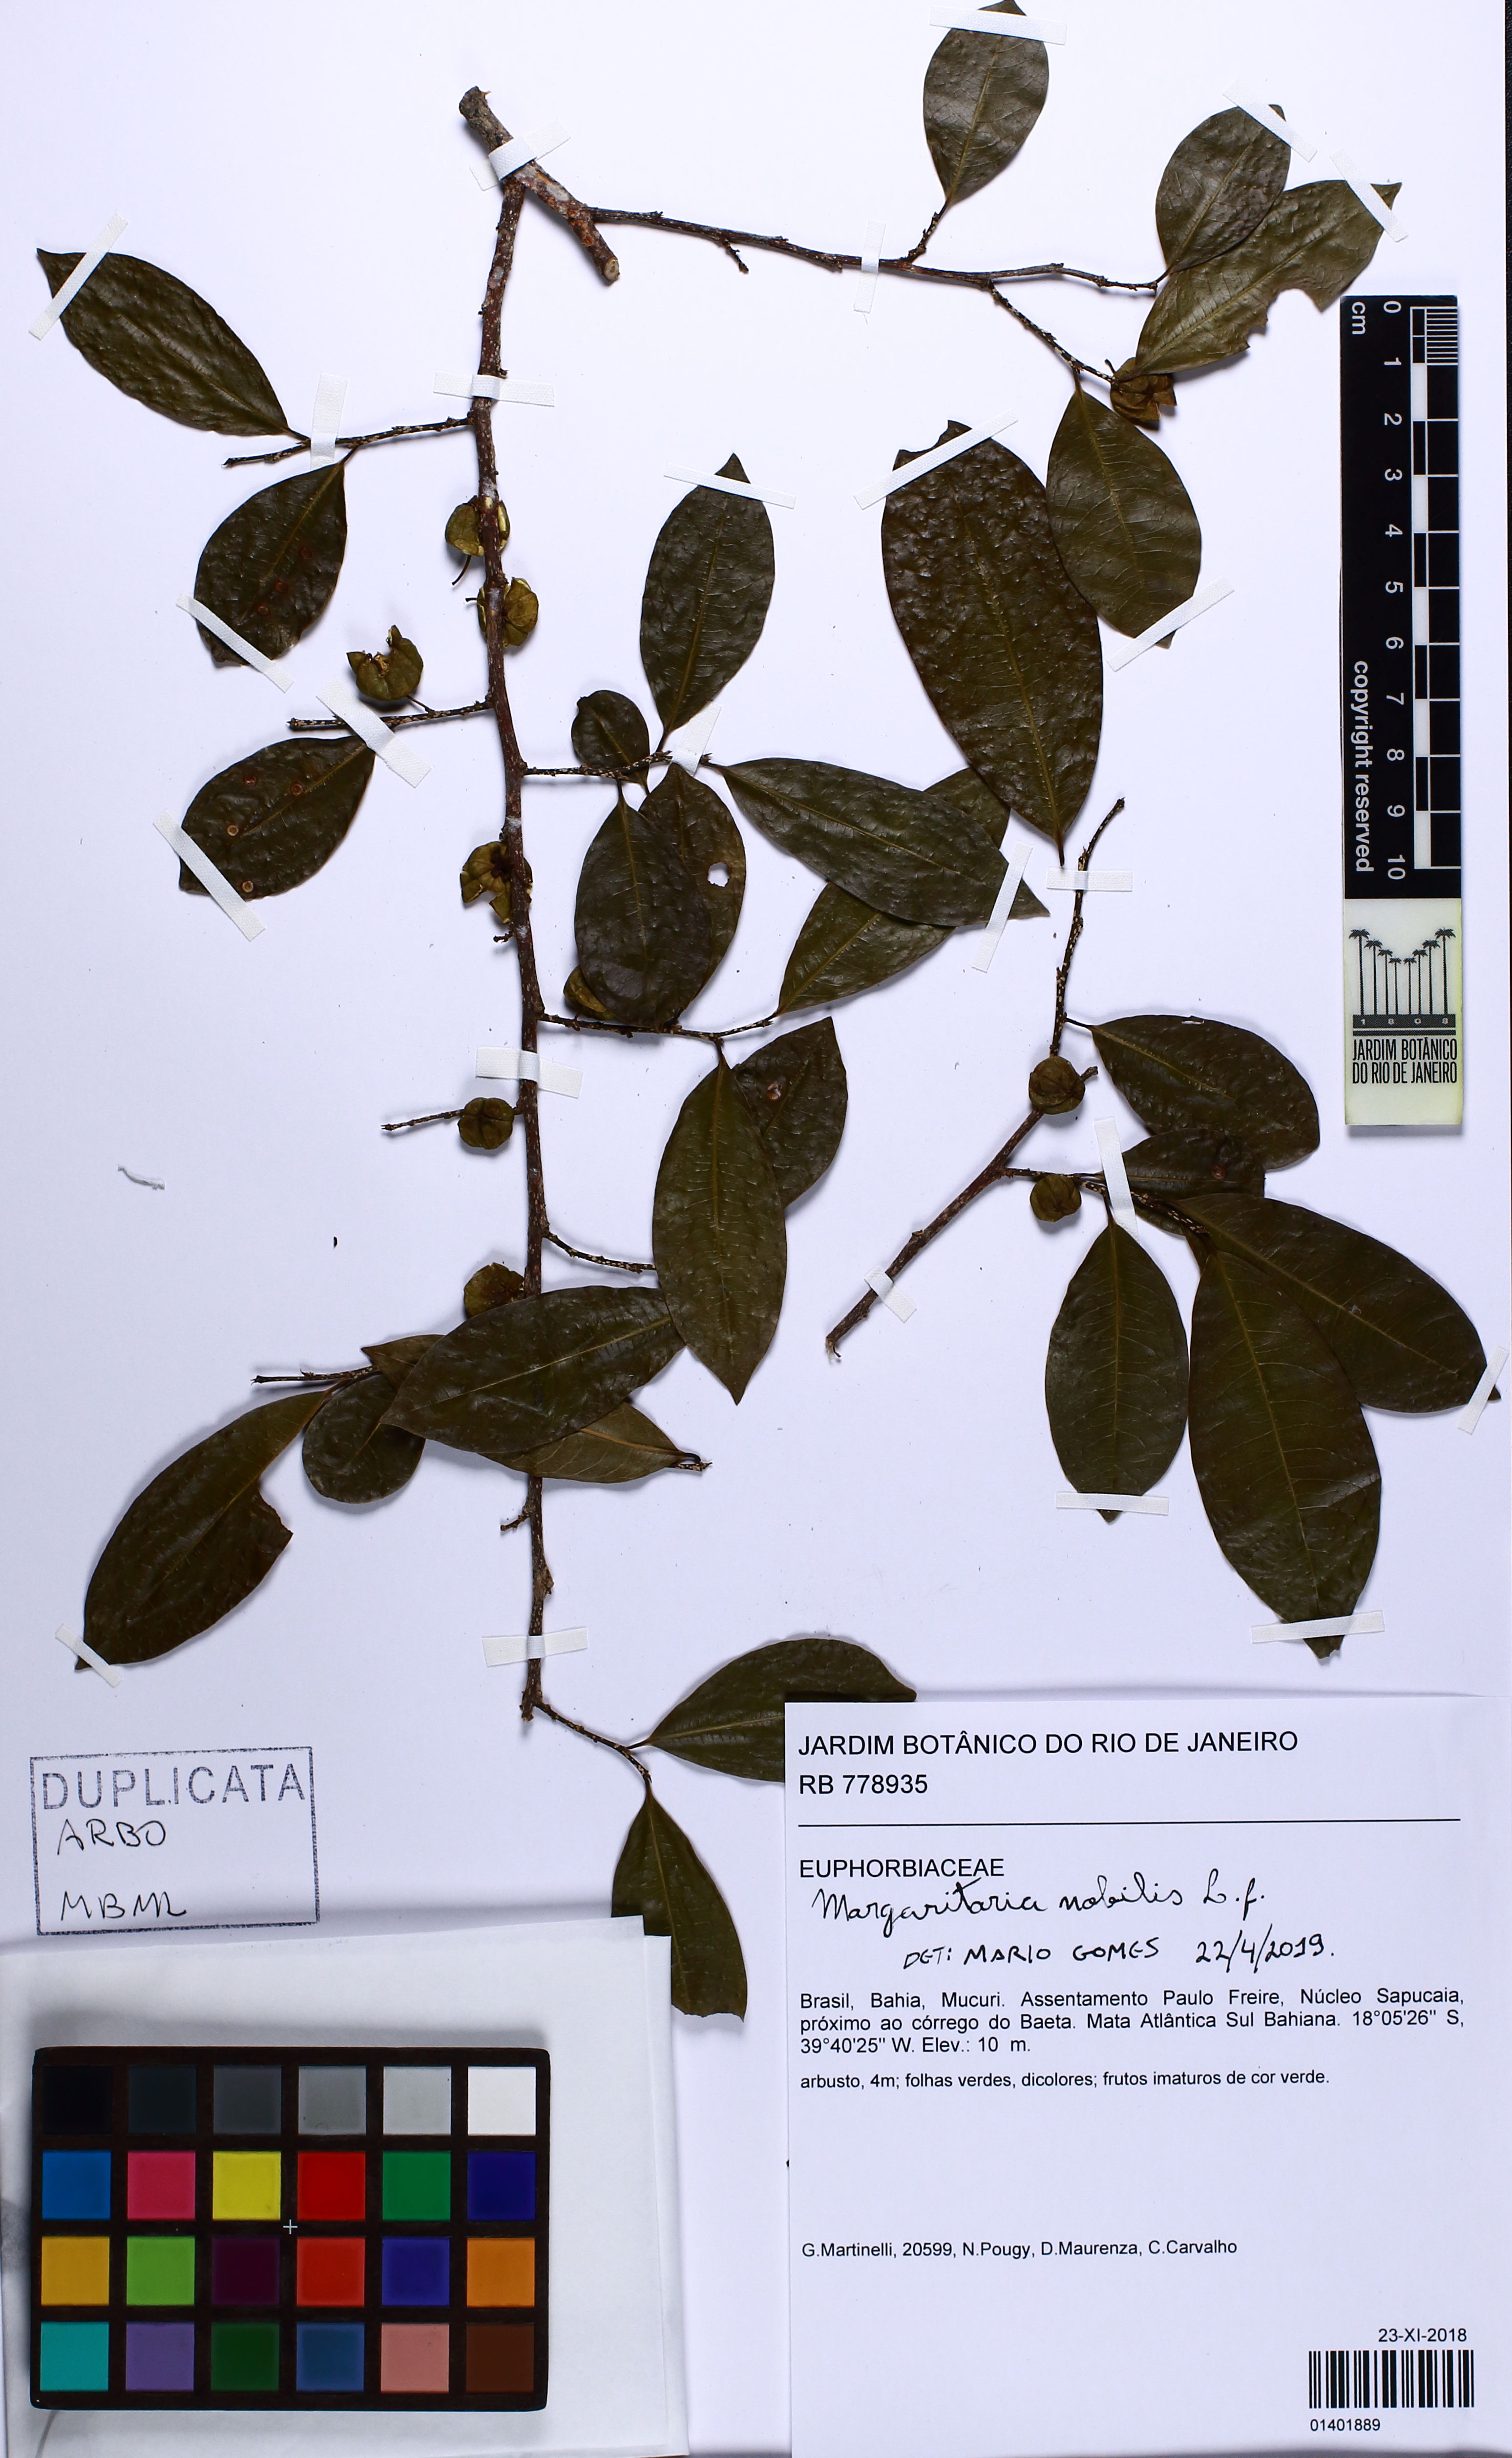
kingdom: Plantae
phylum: Tracheophyta
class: Magnoliopsida
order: Malpighiales
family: Phyllanthaceae
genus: Margaritaria
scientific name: Margaritaria nobilis
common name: Goose berry
